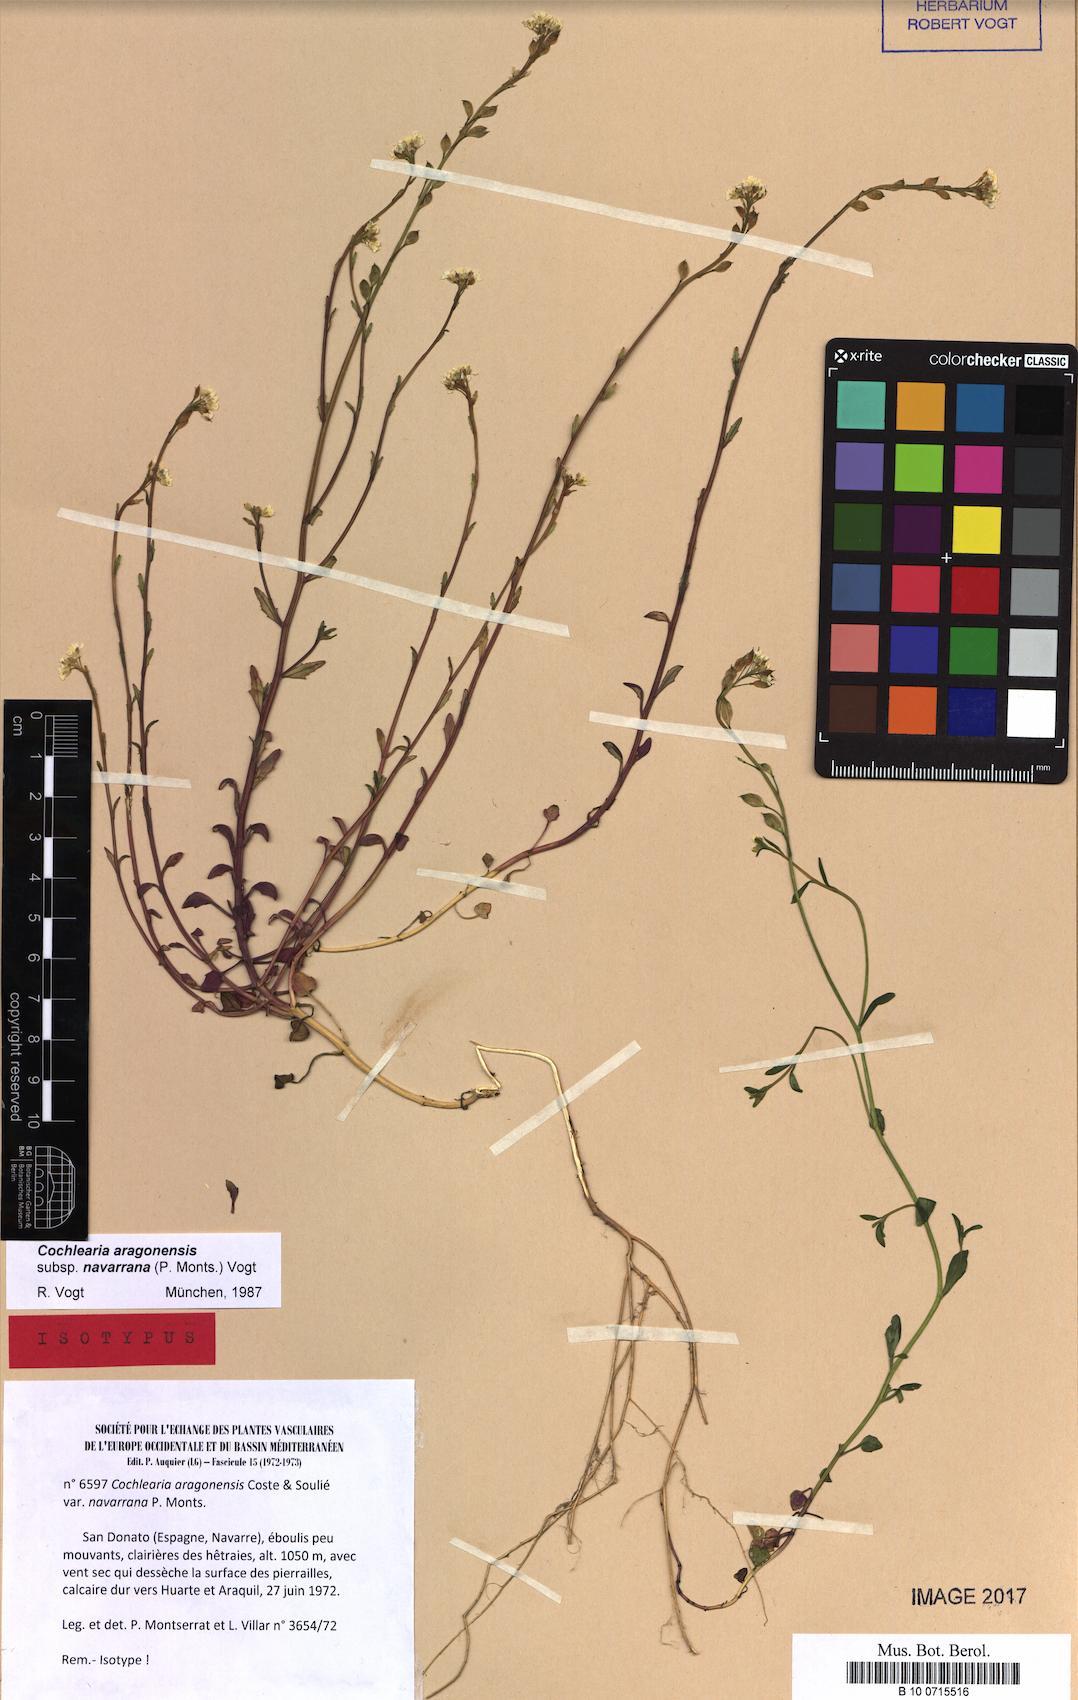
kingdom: Plantae
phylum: Tracheophyta
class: Magnoliopsida
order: Brassicales
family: Brassicaceae
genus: Ionopsidium
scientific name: Ionopsidium aragonensis
